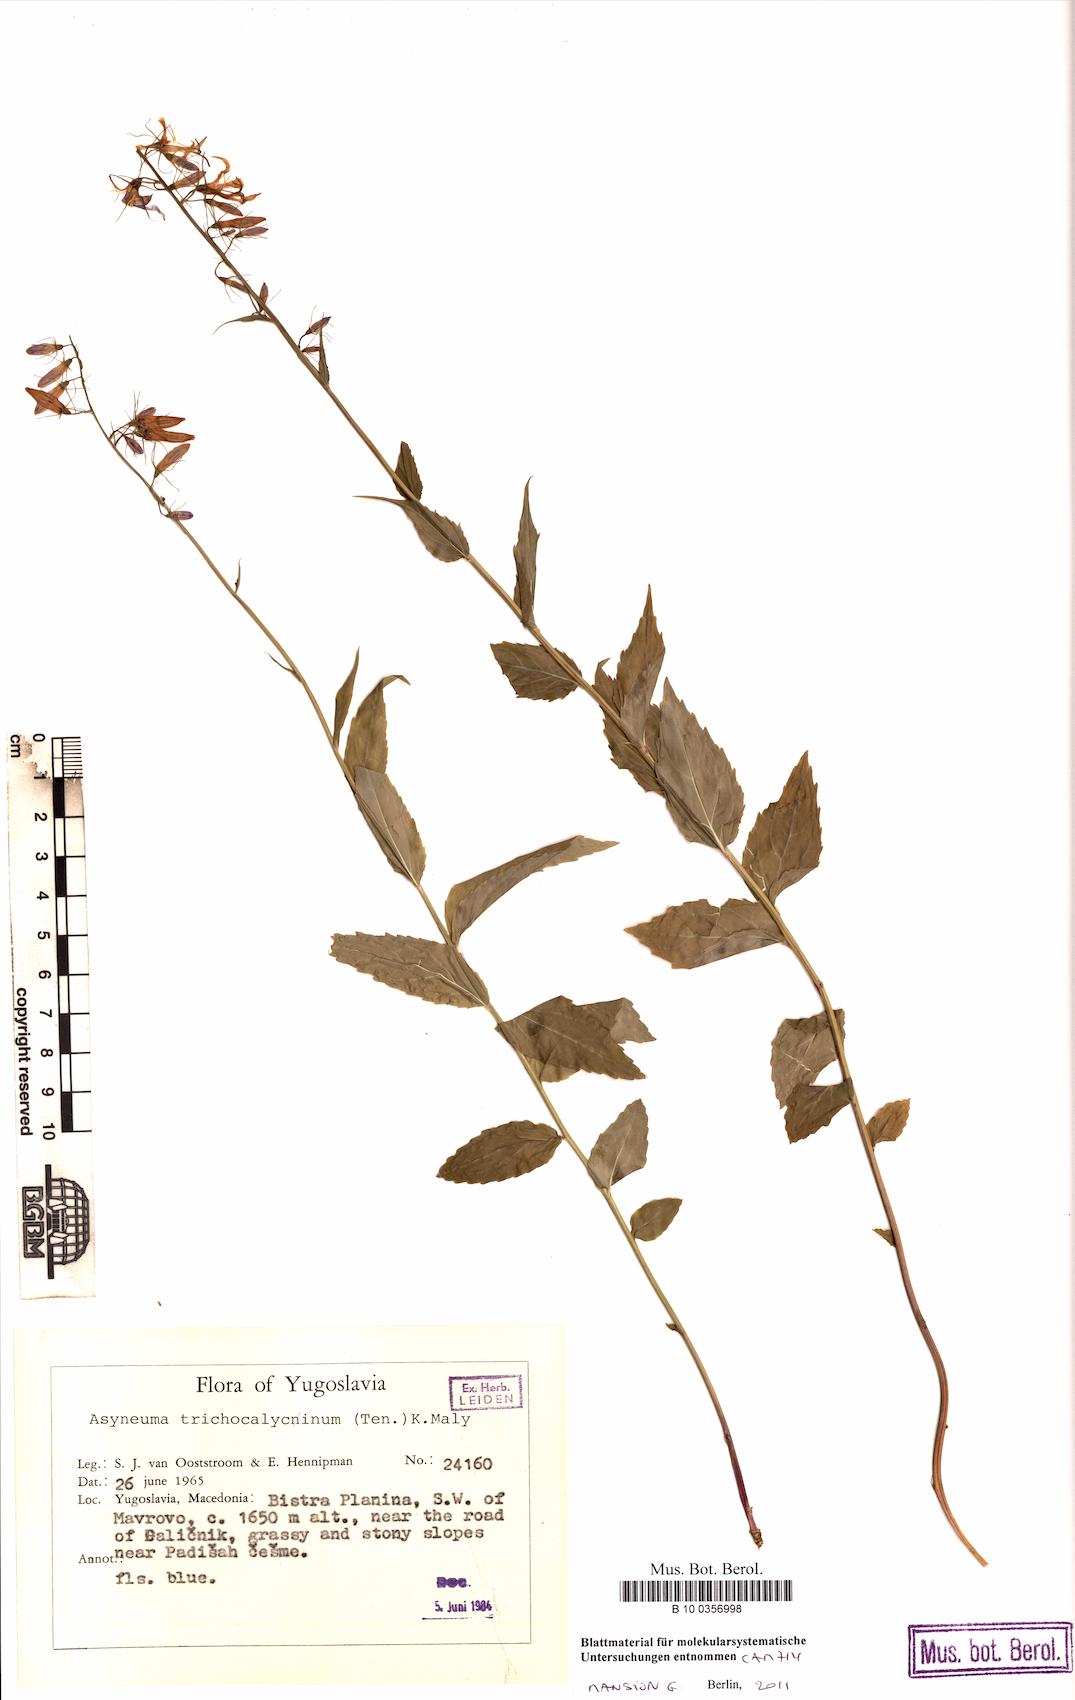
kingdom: Plantae
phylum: Tracheophyta
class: Magnoliopsida
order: Asterales
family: Campanulaceae
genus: Campanula
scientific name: Campanula trichocalycina
